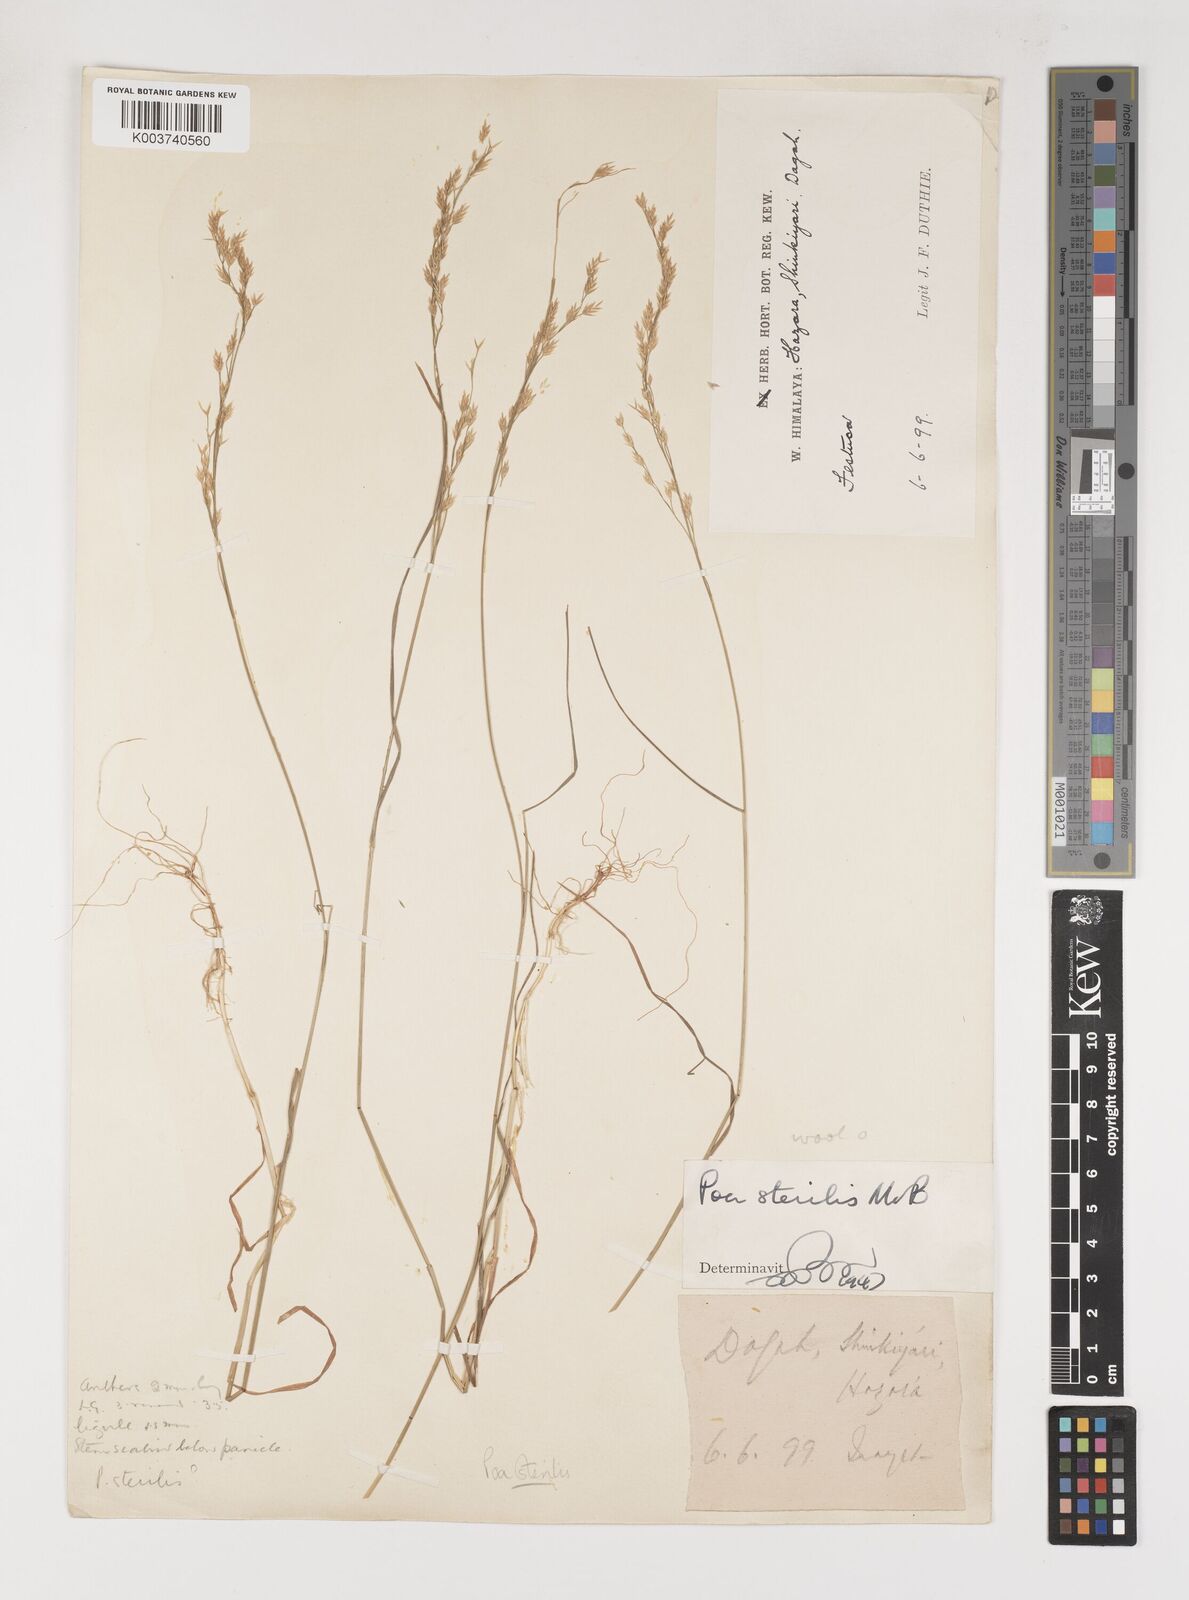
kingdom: Plantae
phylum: Tracheophyta
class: Liliopsida
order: Poales
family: Poaceae
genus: Poa
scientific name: Poa sterilis
